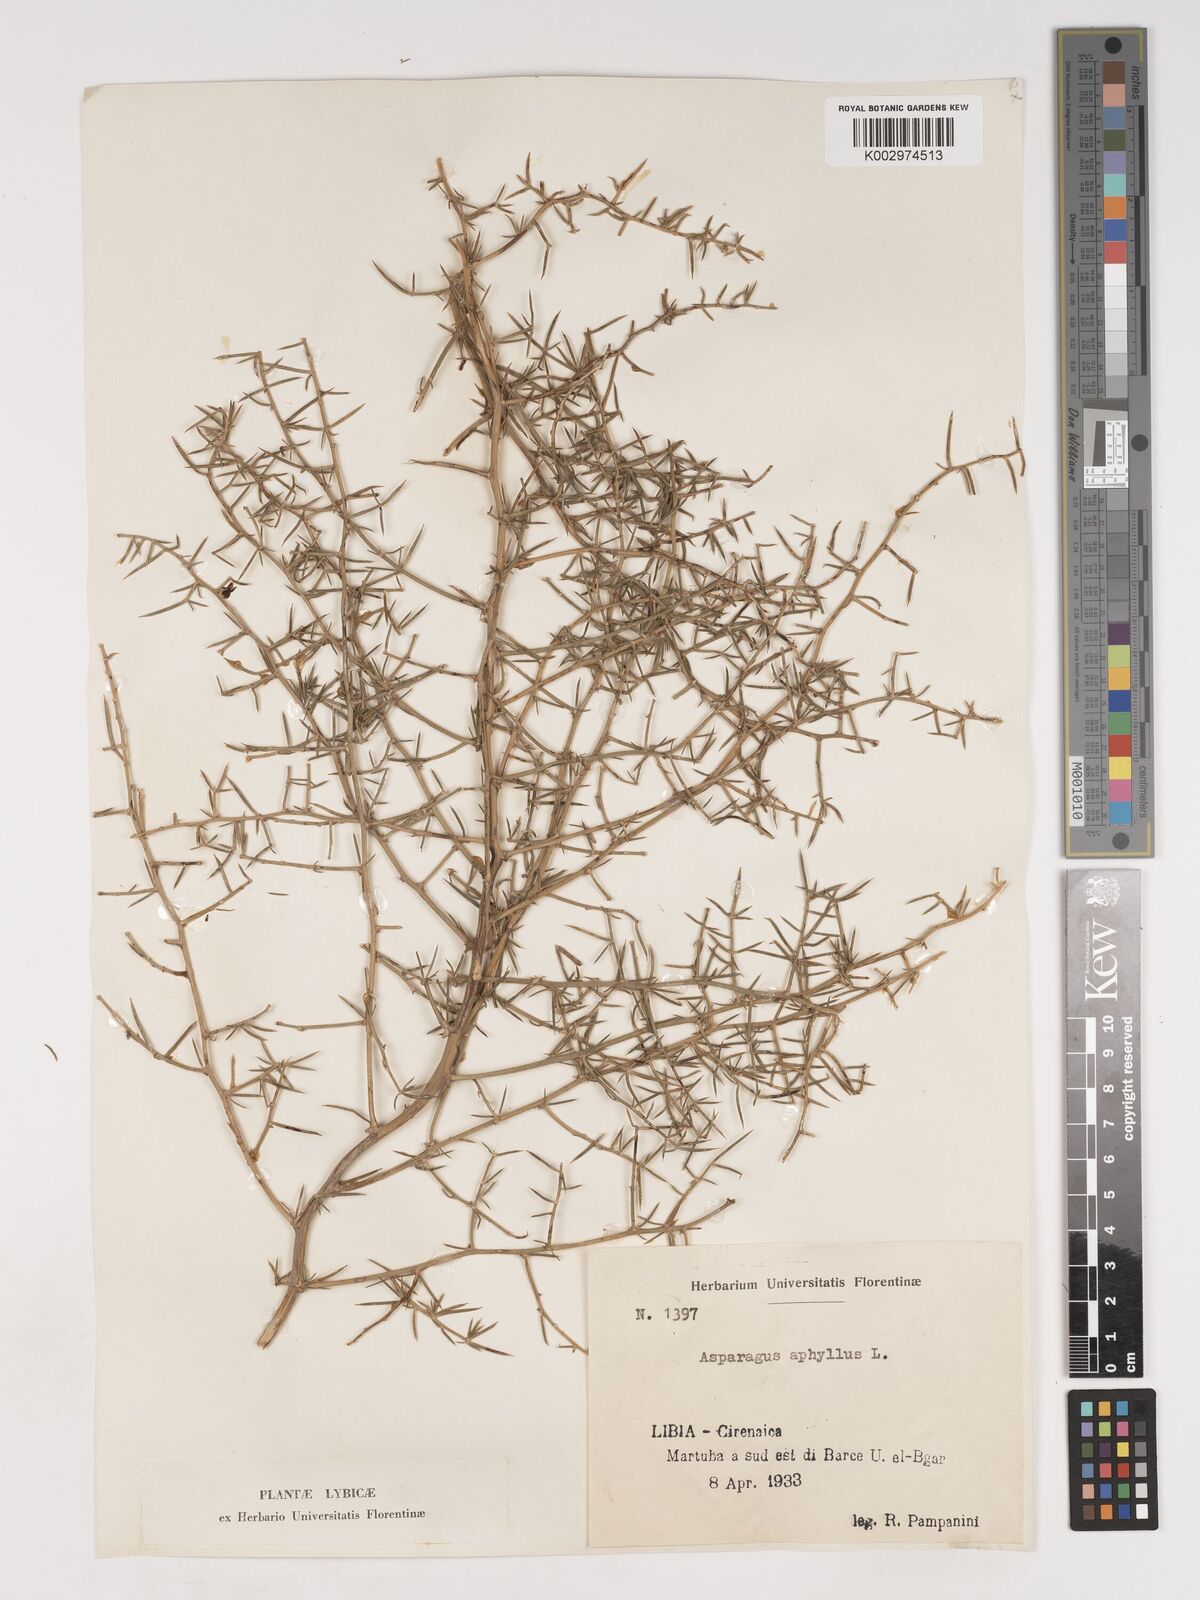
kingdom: Plantae
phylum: Tracheophyta
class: Liliopsida
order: Asparagales
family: Asparagaceae
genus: Asparagus
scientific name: Asparagus horridus
